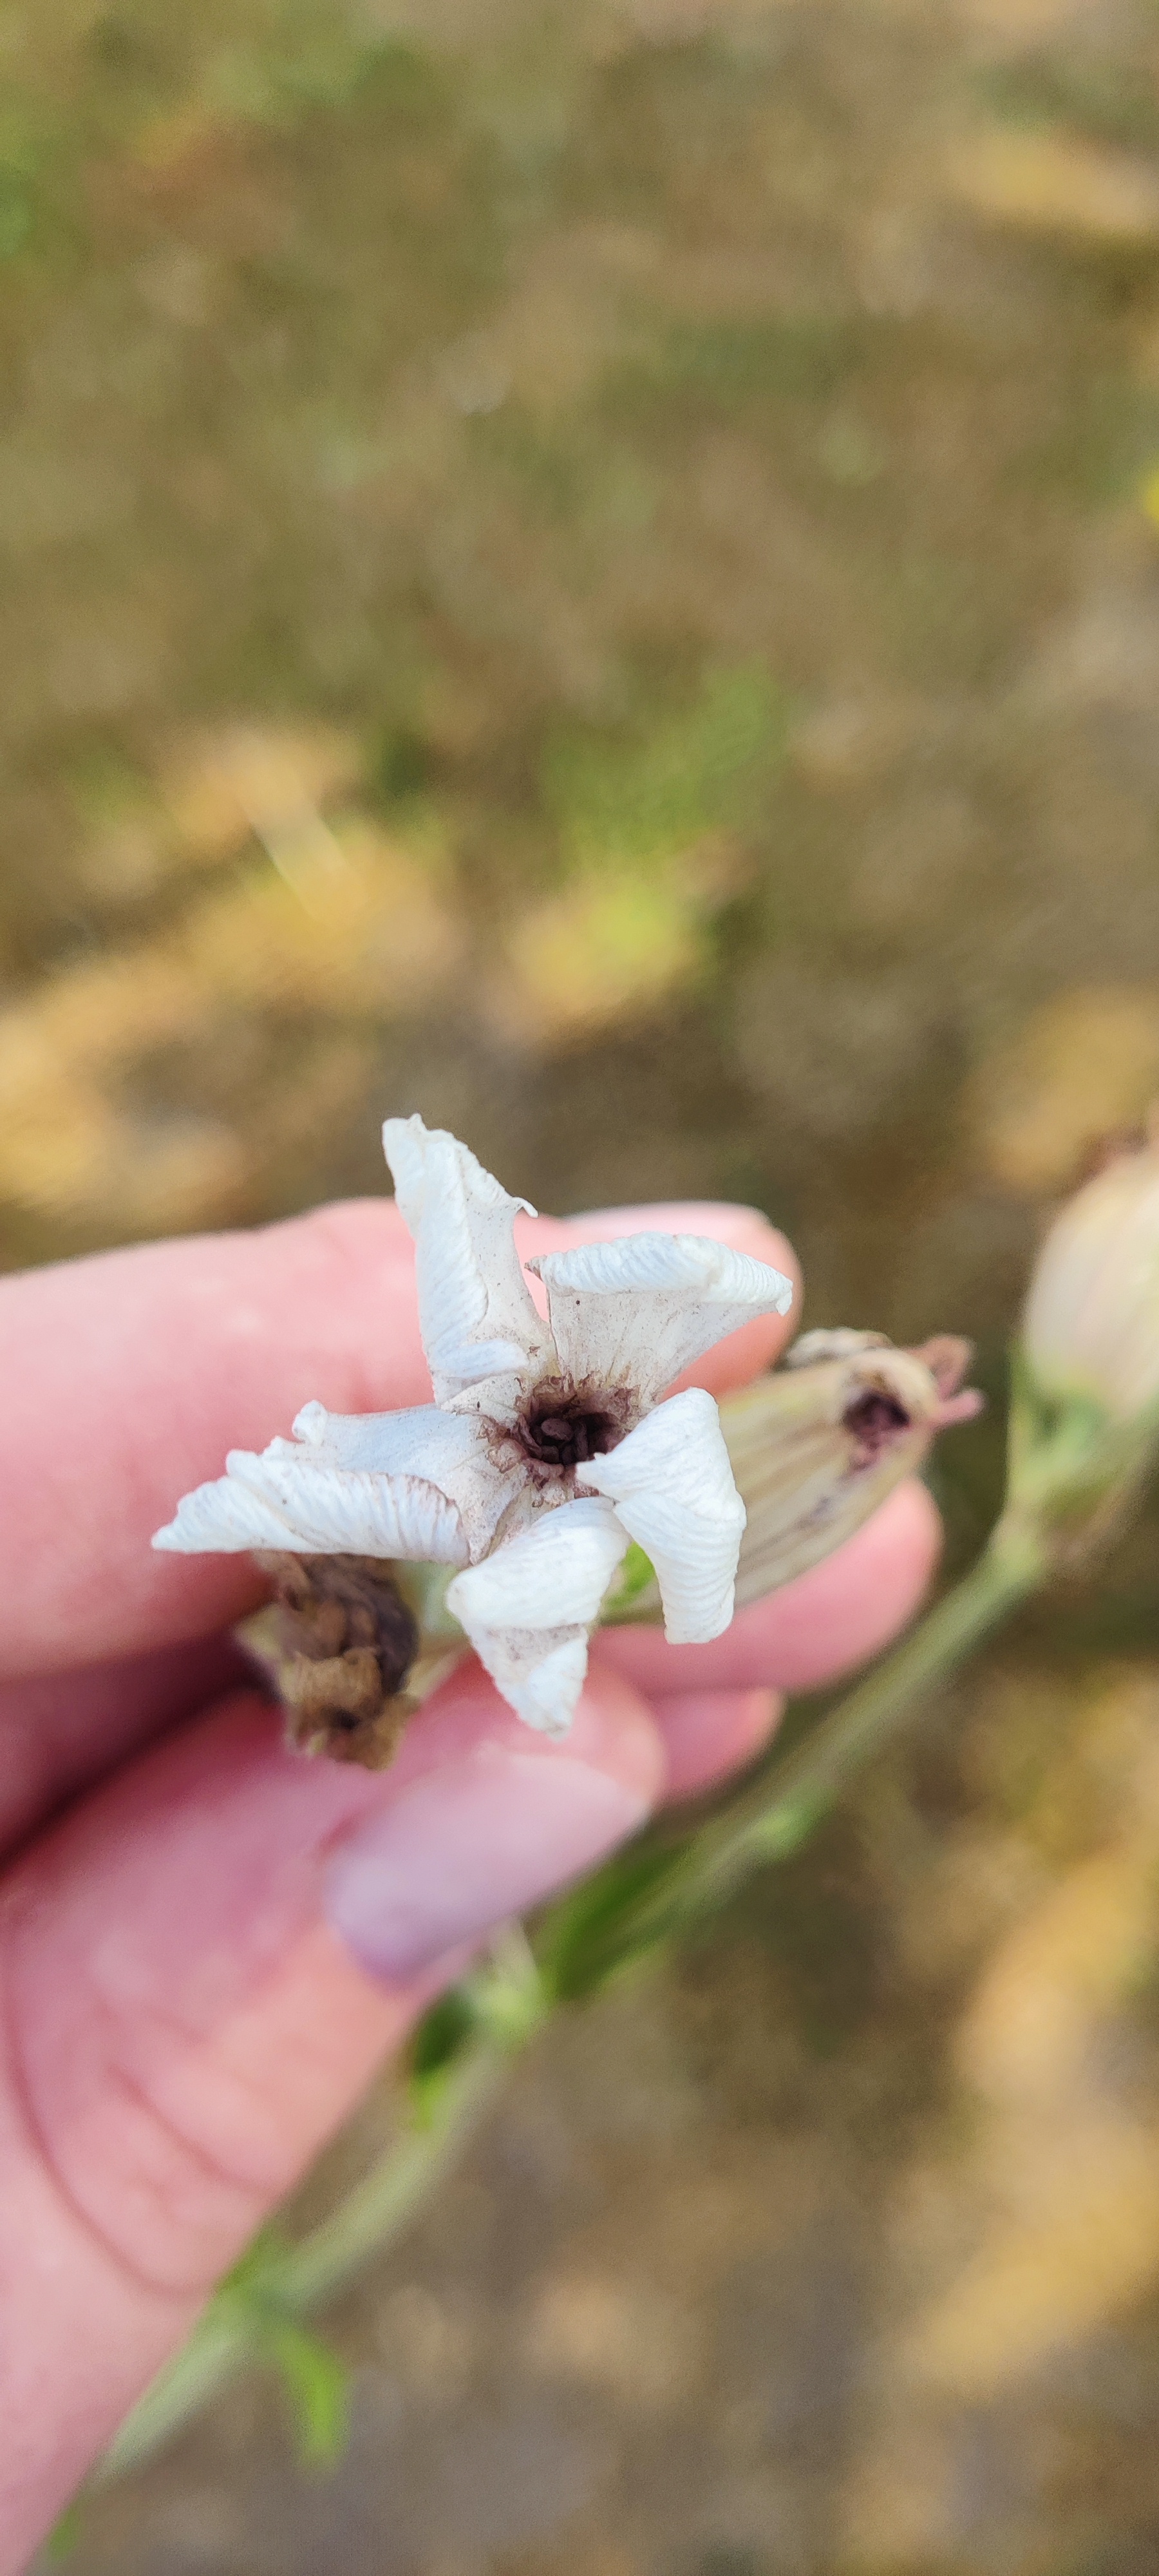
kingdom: Plantae
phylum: Tracheophyta
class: Magnoliopsida
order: Caryophyllales
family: Caryophyllaceae
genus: Silene
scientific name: Silene latifolia
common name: Aftenpragtstjerne
